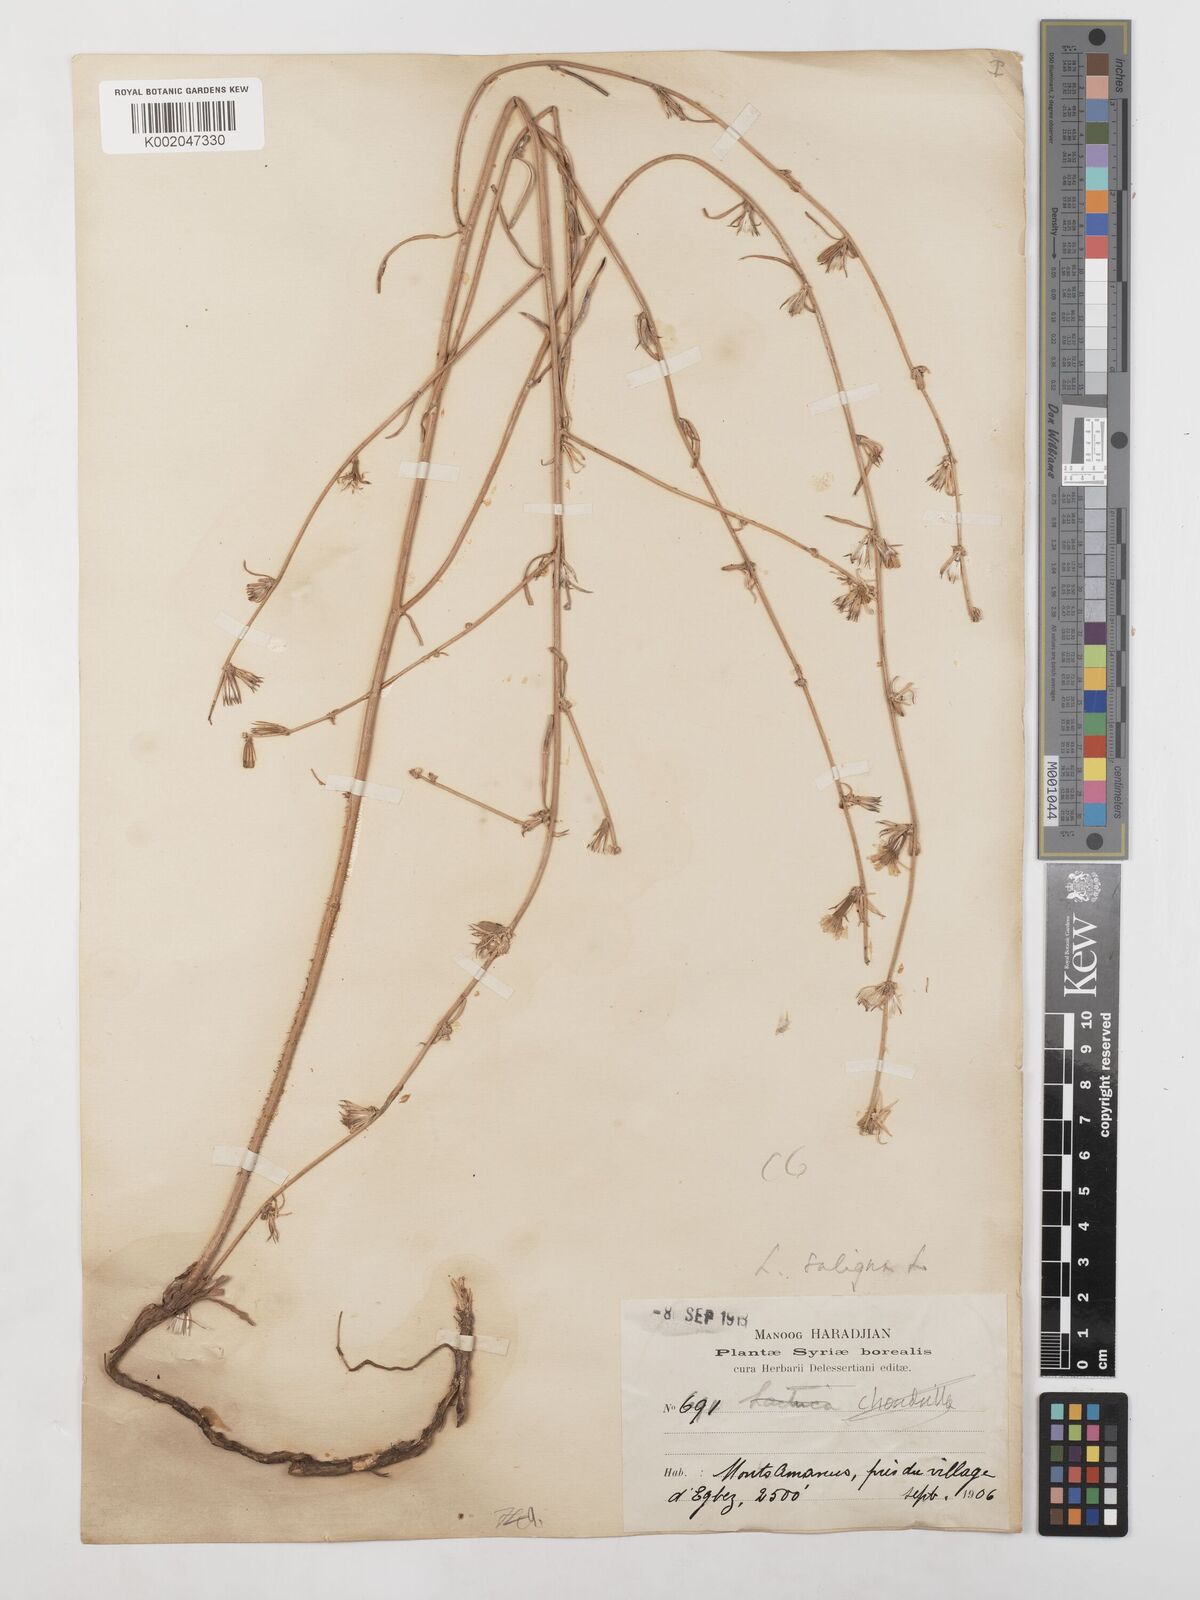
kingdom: Plantae
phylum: Tracheophyta
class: Magnoliopsida
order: Asterales
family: Asteraceae
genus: Lactuca
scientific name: Lactuca saligna
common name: Wild lettuce
